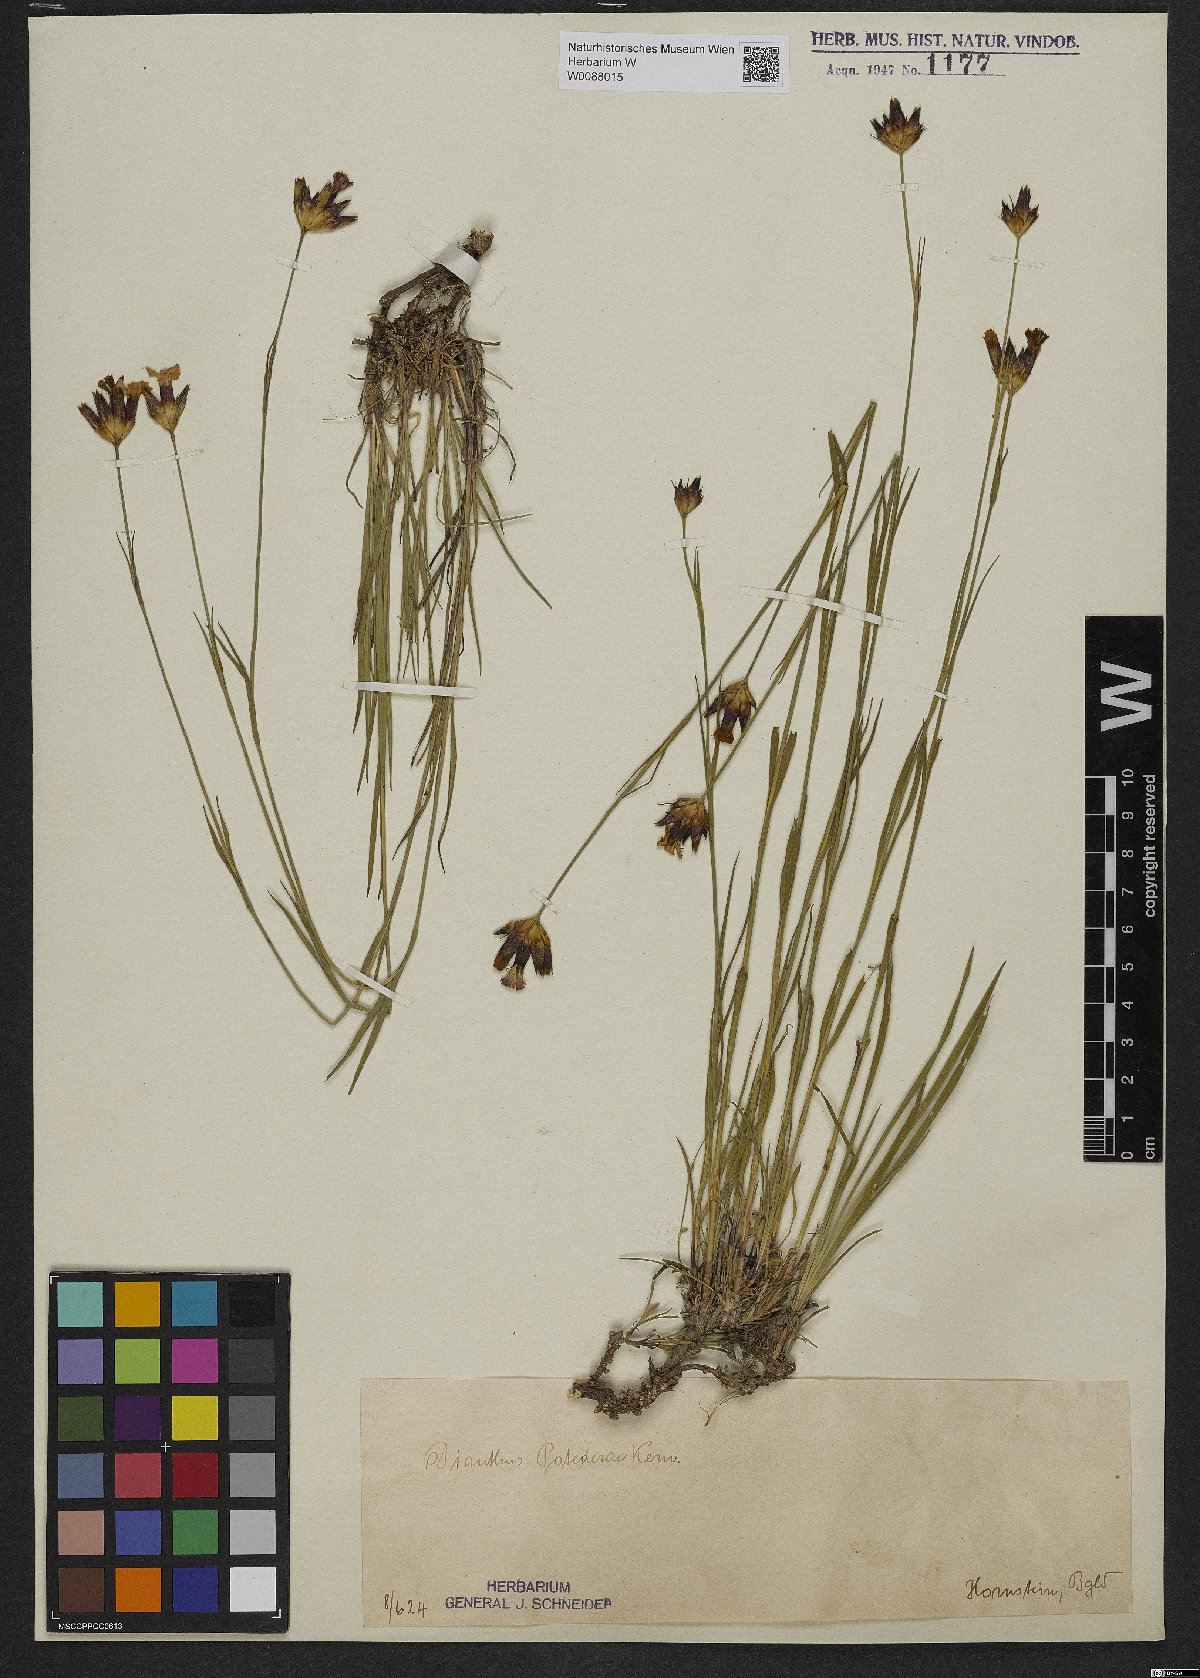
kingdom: Plantae
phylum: Tracheophyta
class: Magnoliopsida
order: Caryophyllales
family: Caryophyllaceae
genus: Dianthus
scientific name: Dianthus pontederae
